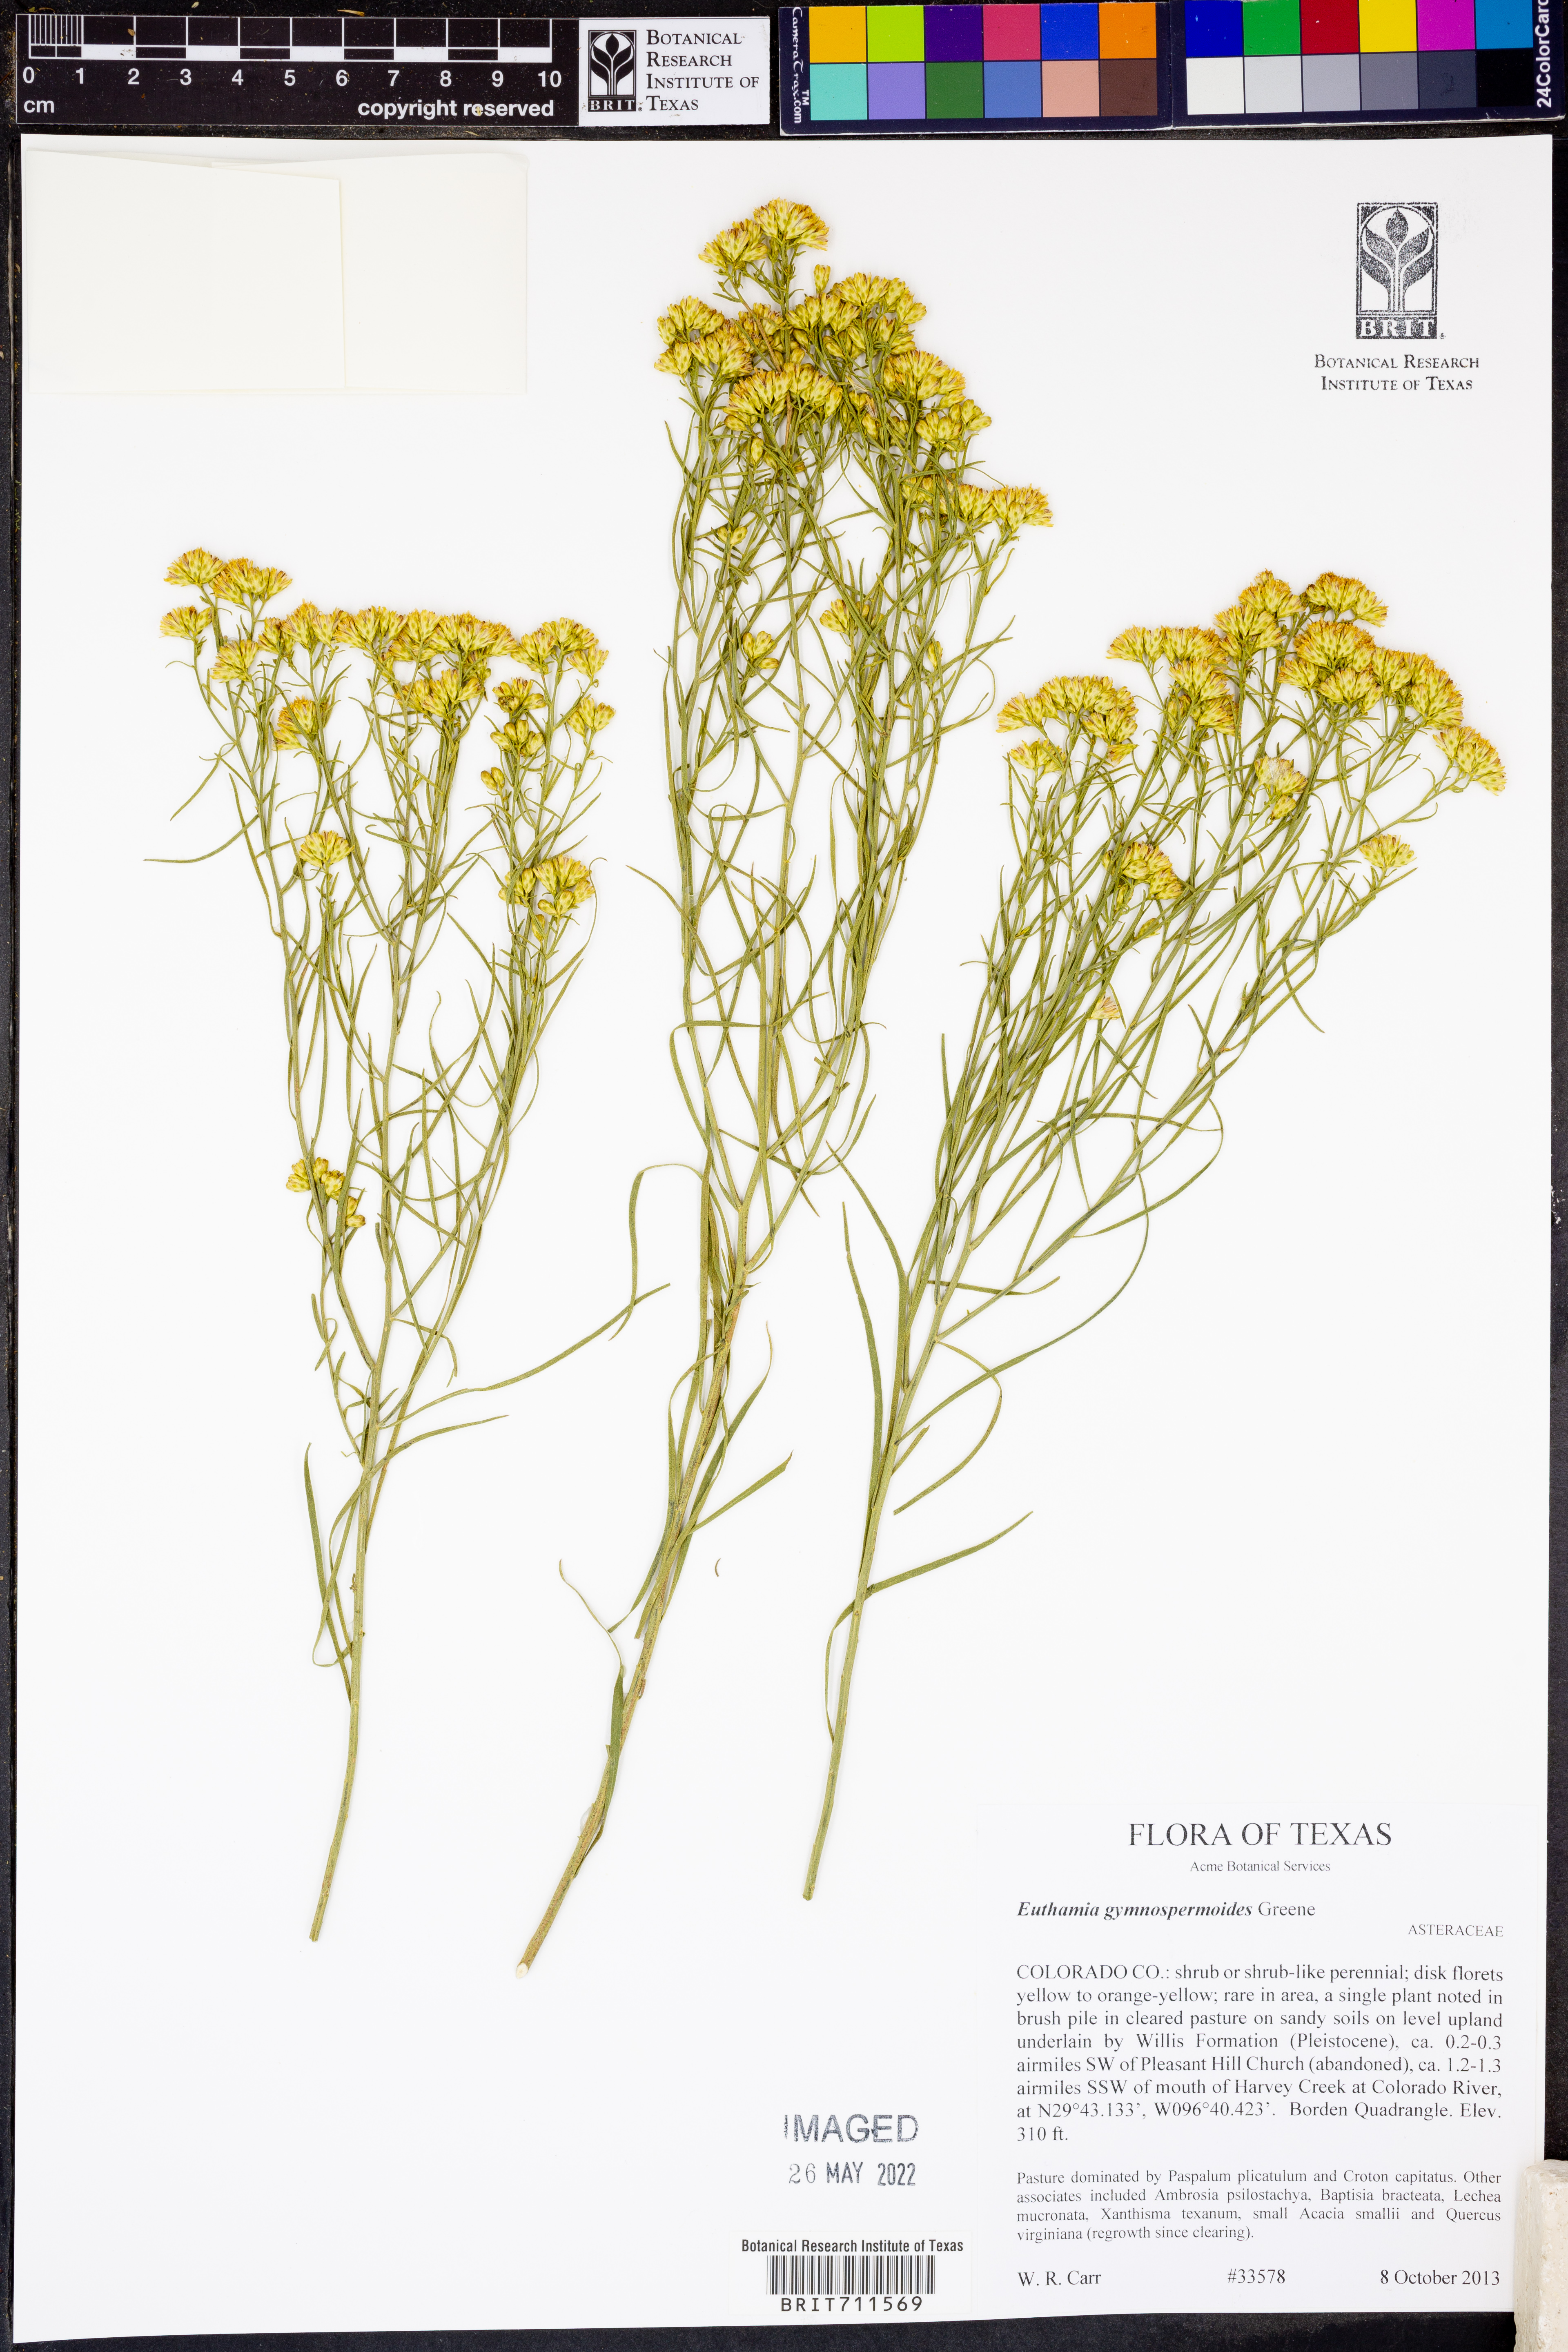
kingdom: Plantae
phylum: Tracheophyta
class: Magnoliopsida
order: Asterales
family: Asteraceae
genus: Euthamia
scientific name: Euthamia gymnospermoides
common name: Great plains goldentop
